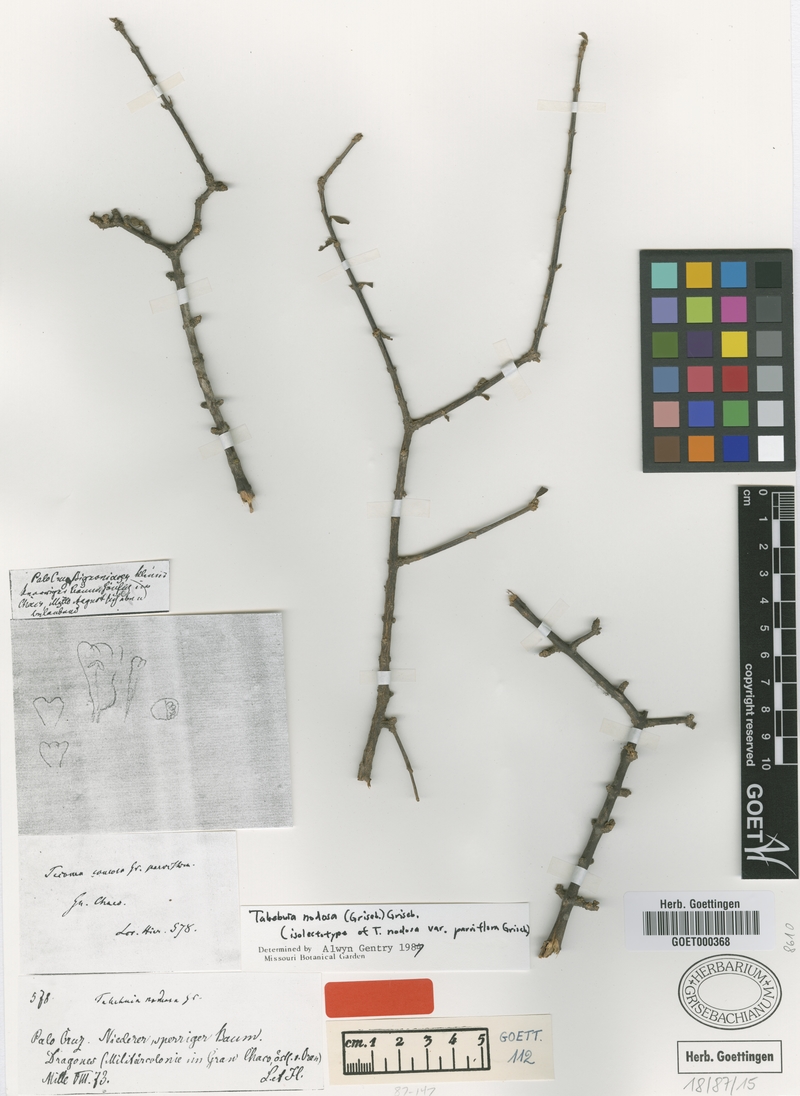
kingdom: Plantae
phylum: Tracheophyta
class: Magnoliopsida
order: Lamiales
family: Bignoniaceae
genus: Tabebuia
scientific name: Tabebuia nodosa
